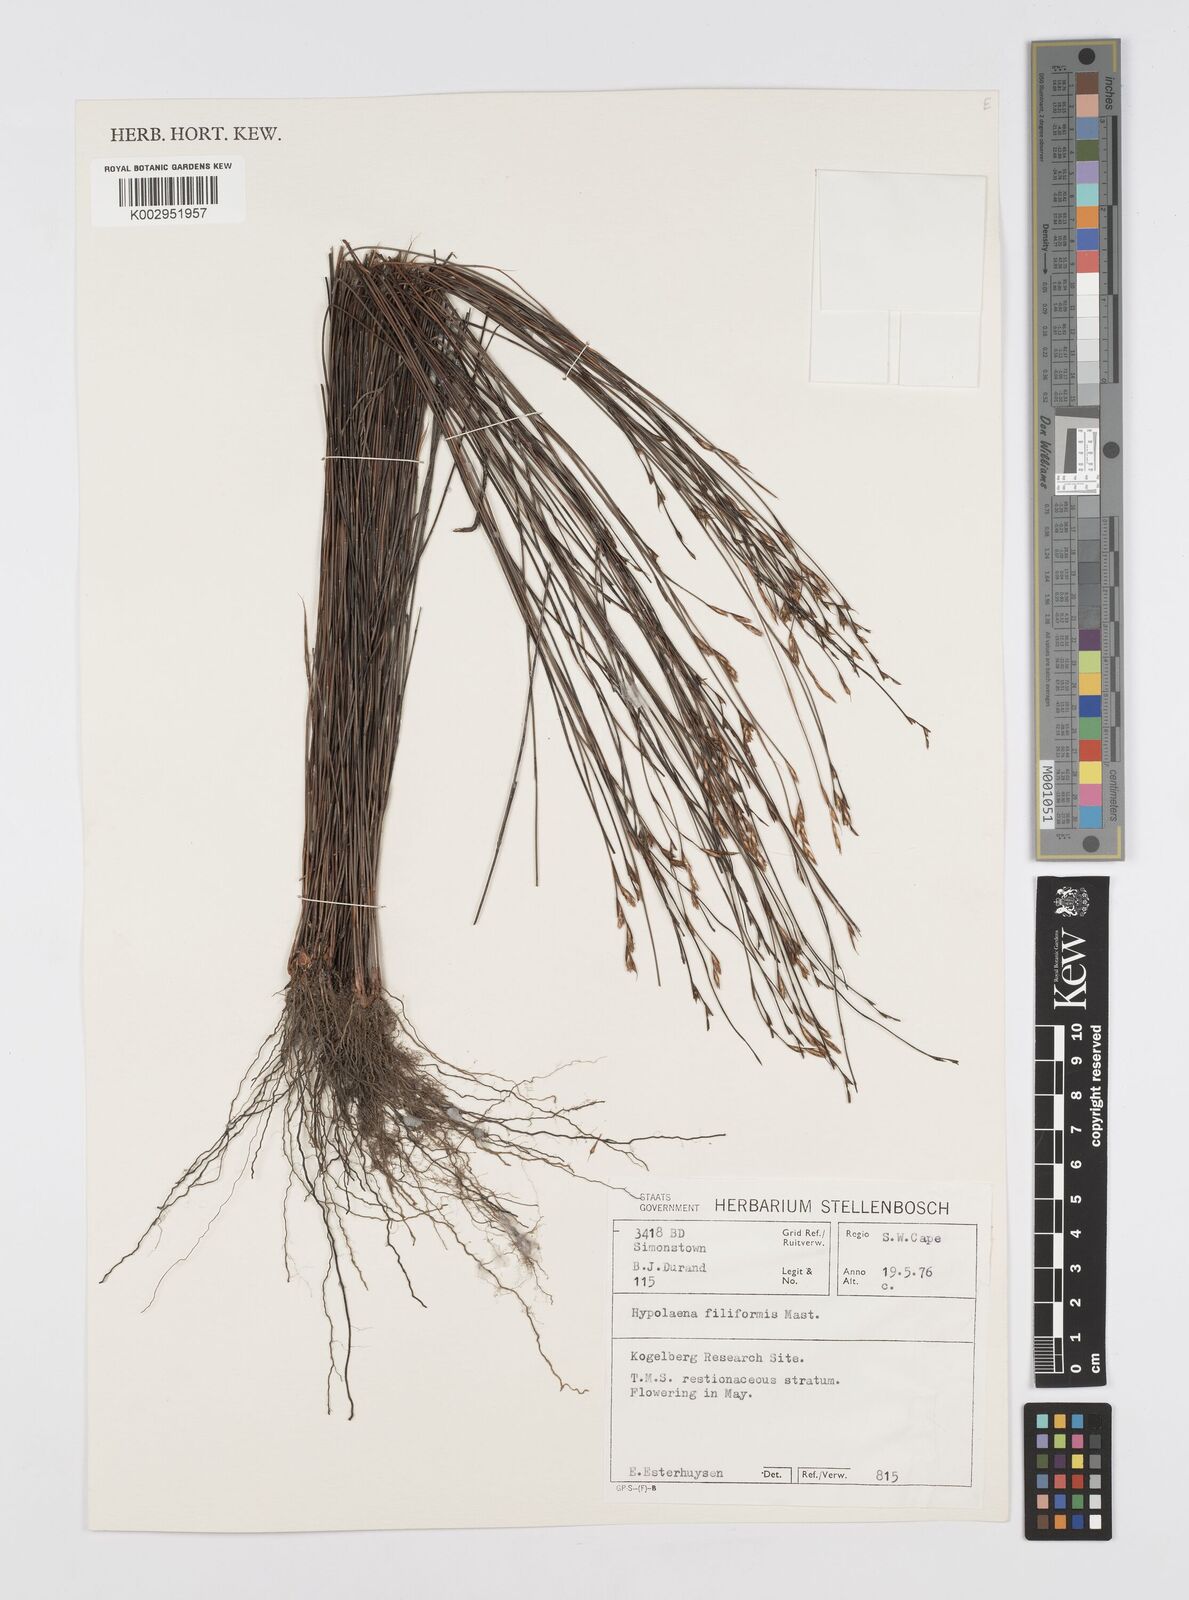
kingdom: Plantae
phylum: Tracheophyta
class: Liliopsida
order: Poales
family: Restionaceae
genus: Restio
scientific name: Restio filiformis
